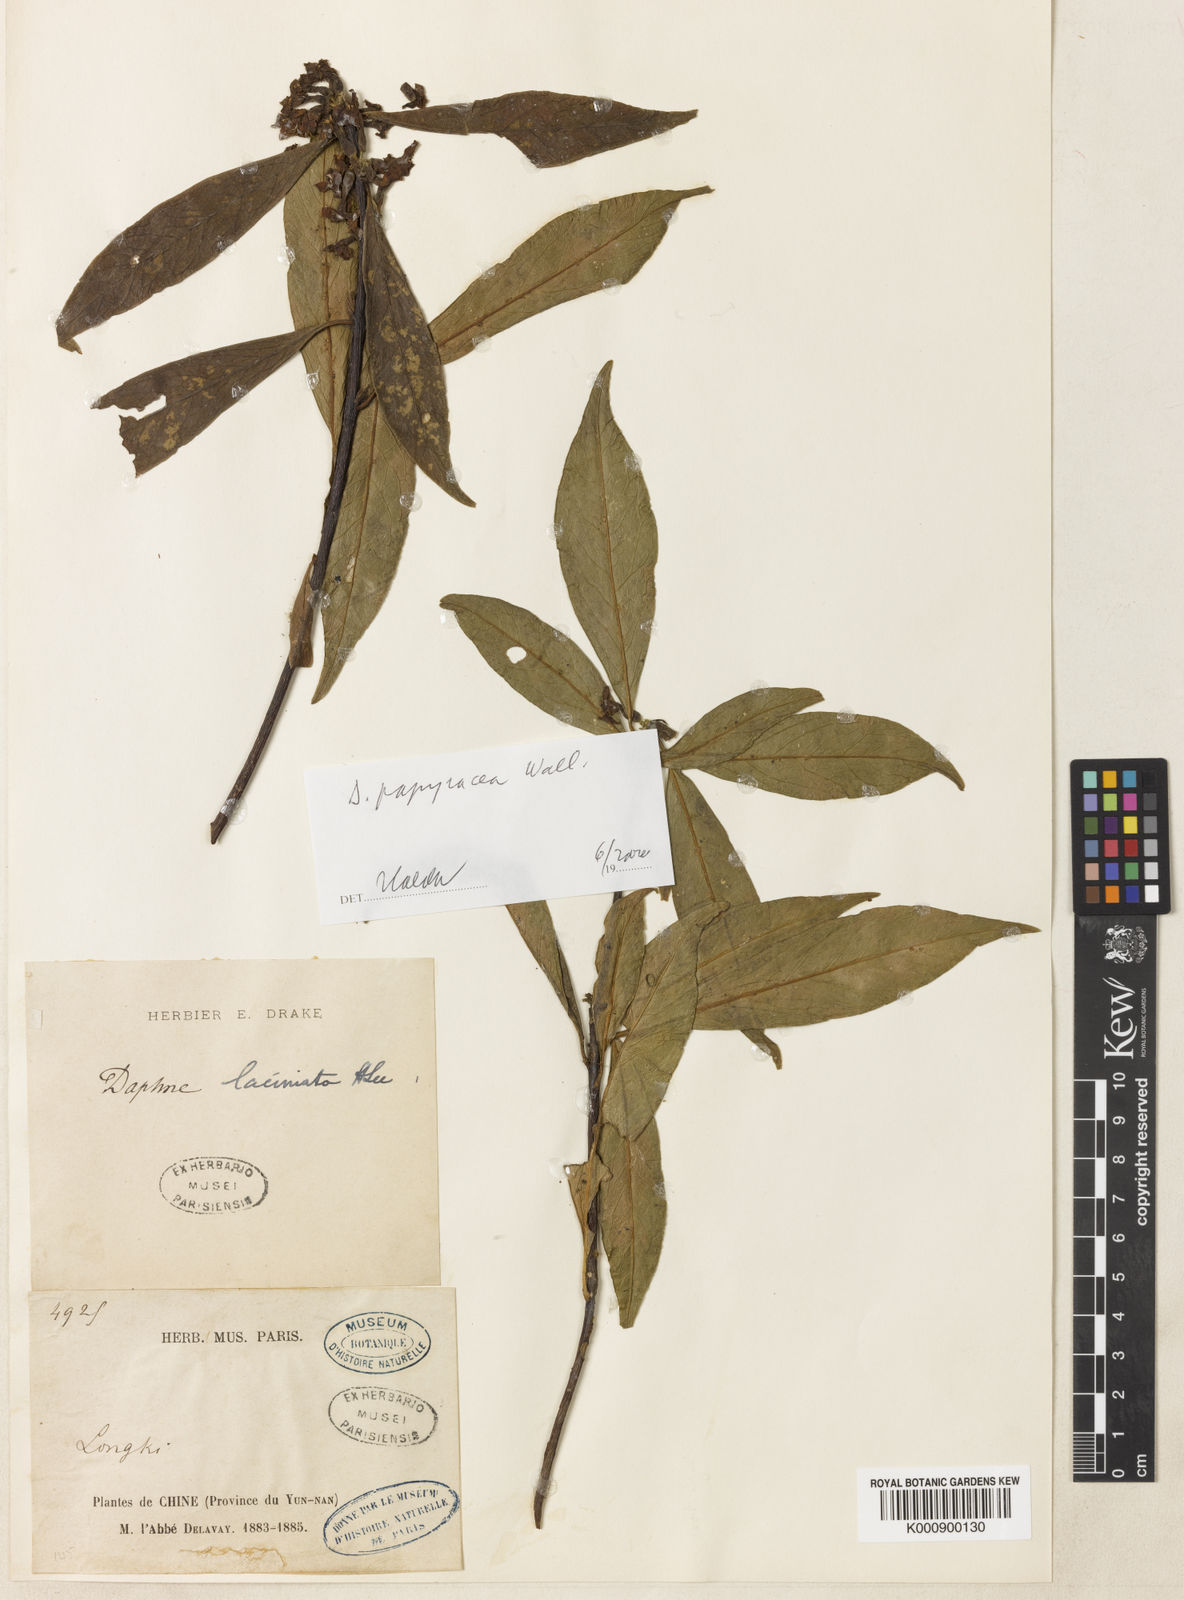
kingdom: Plantae
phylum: Tracheophyta
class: Magnoliopsida
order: Malvales
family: Thymelaeaceae
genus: Daphne
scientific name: Daphne papyracea
